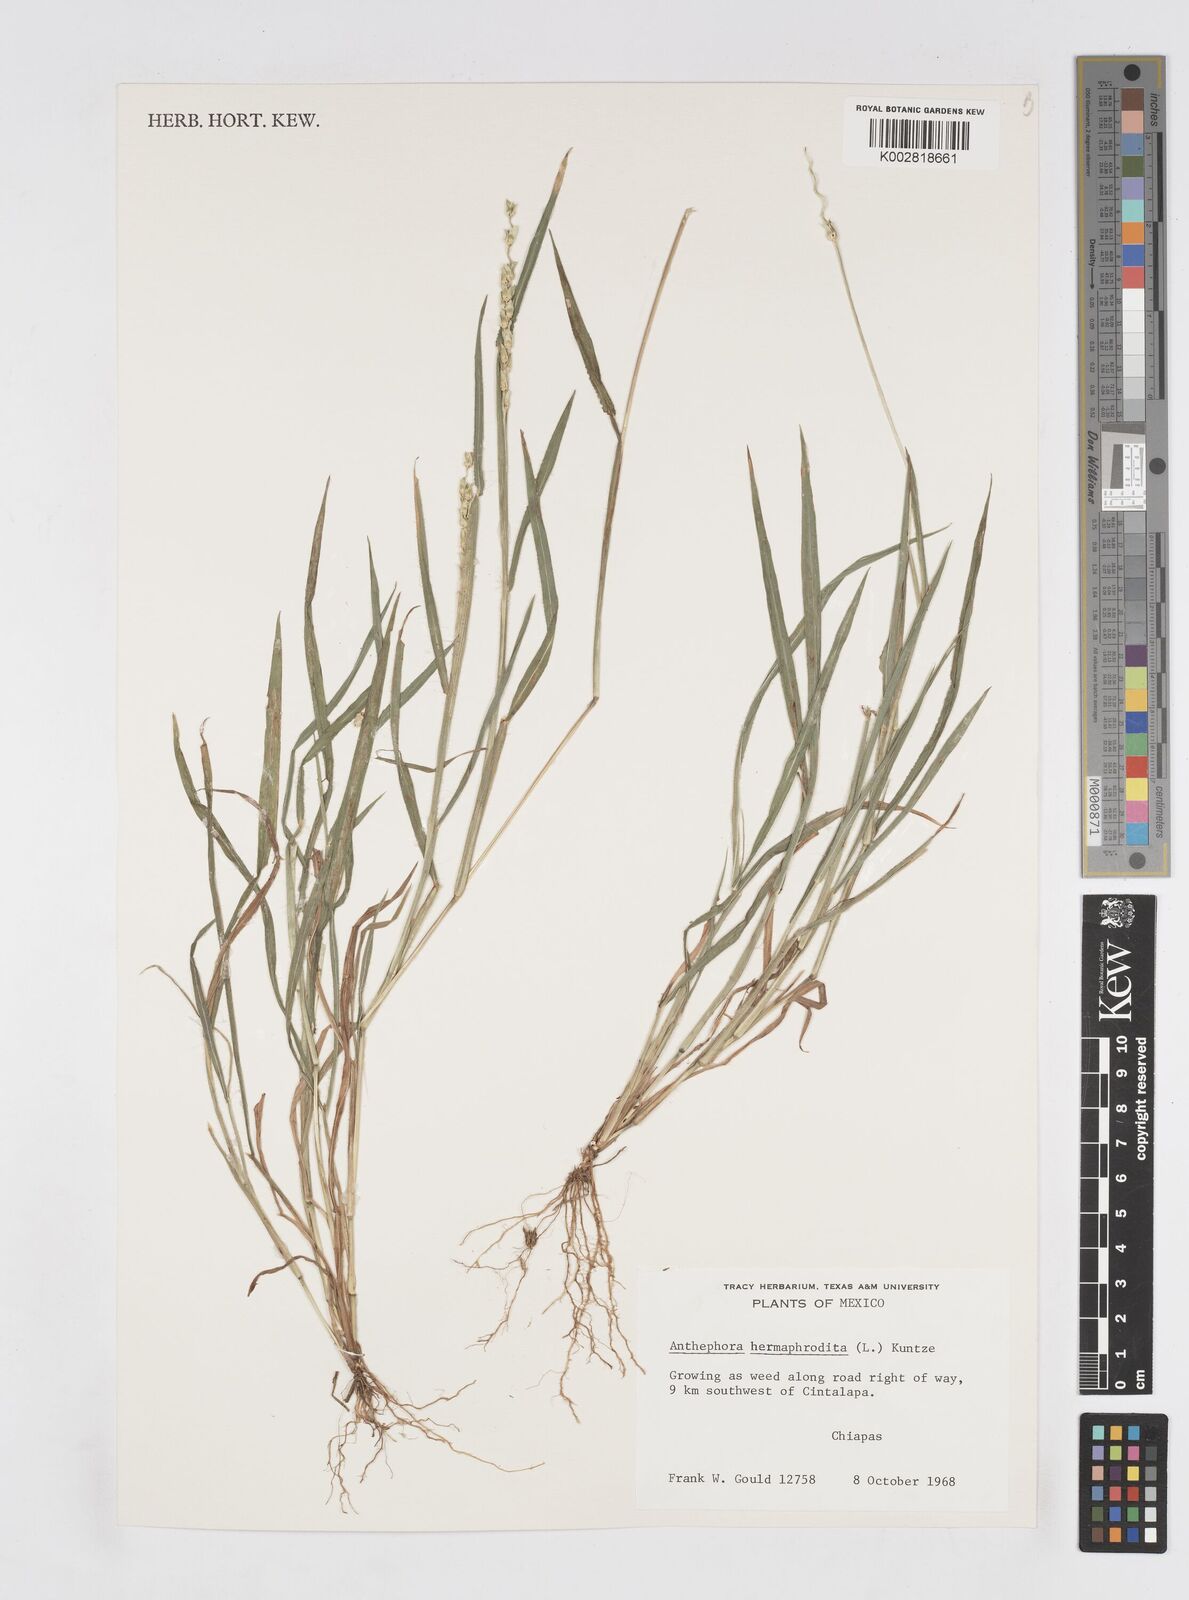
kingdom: Plantae
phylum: Tracheophyta
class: Liliopsida
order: Poales
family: Poaceae
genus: Anthephora
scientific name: Anthephora hermaphrodita
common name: Oldfield grass
